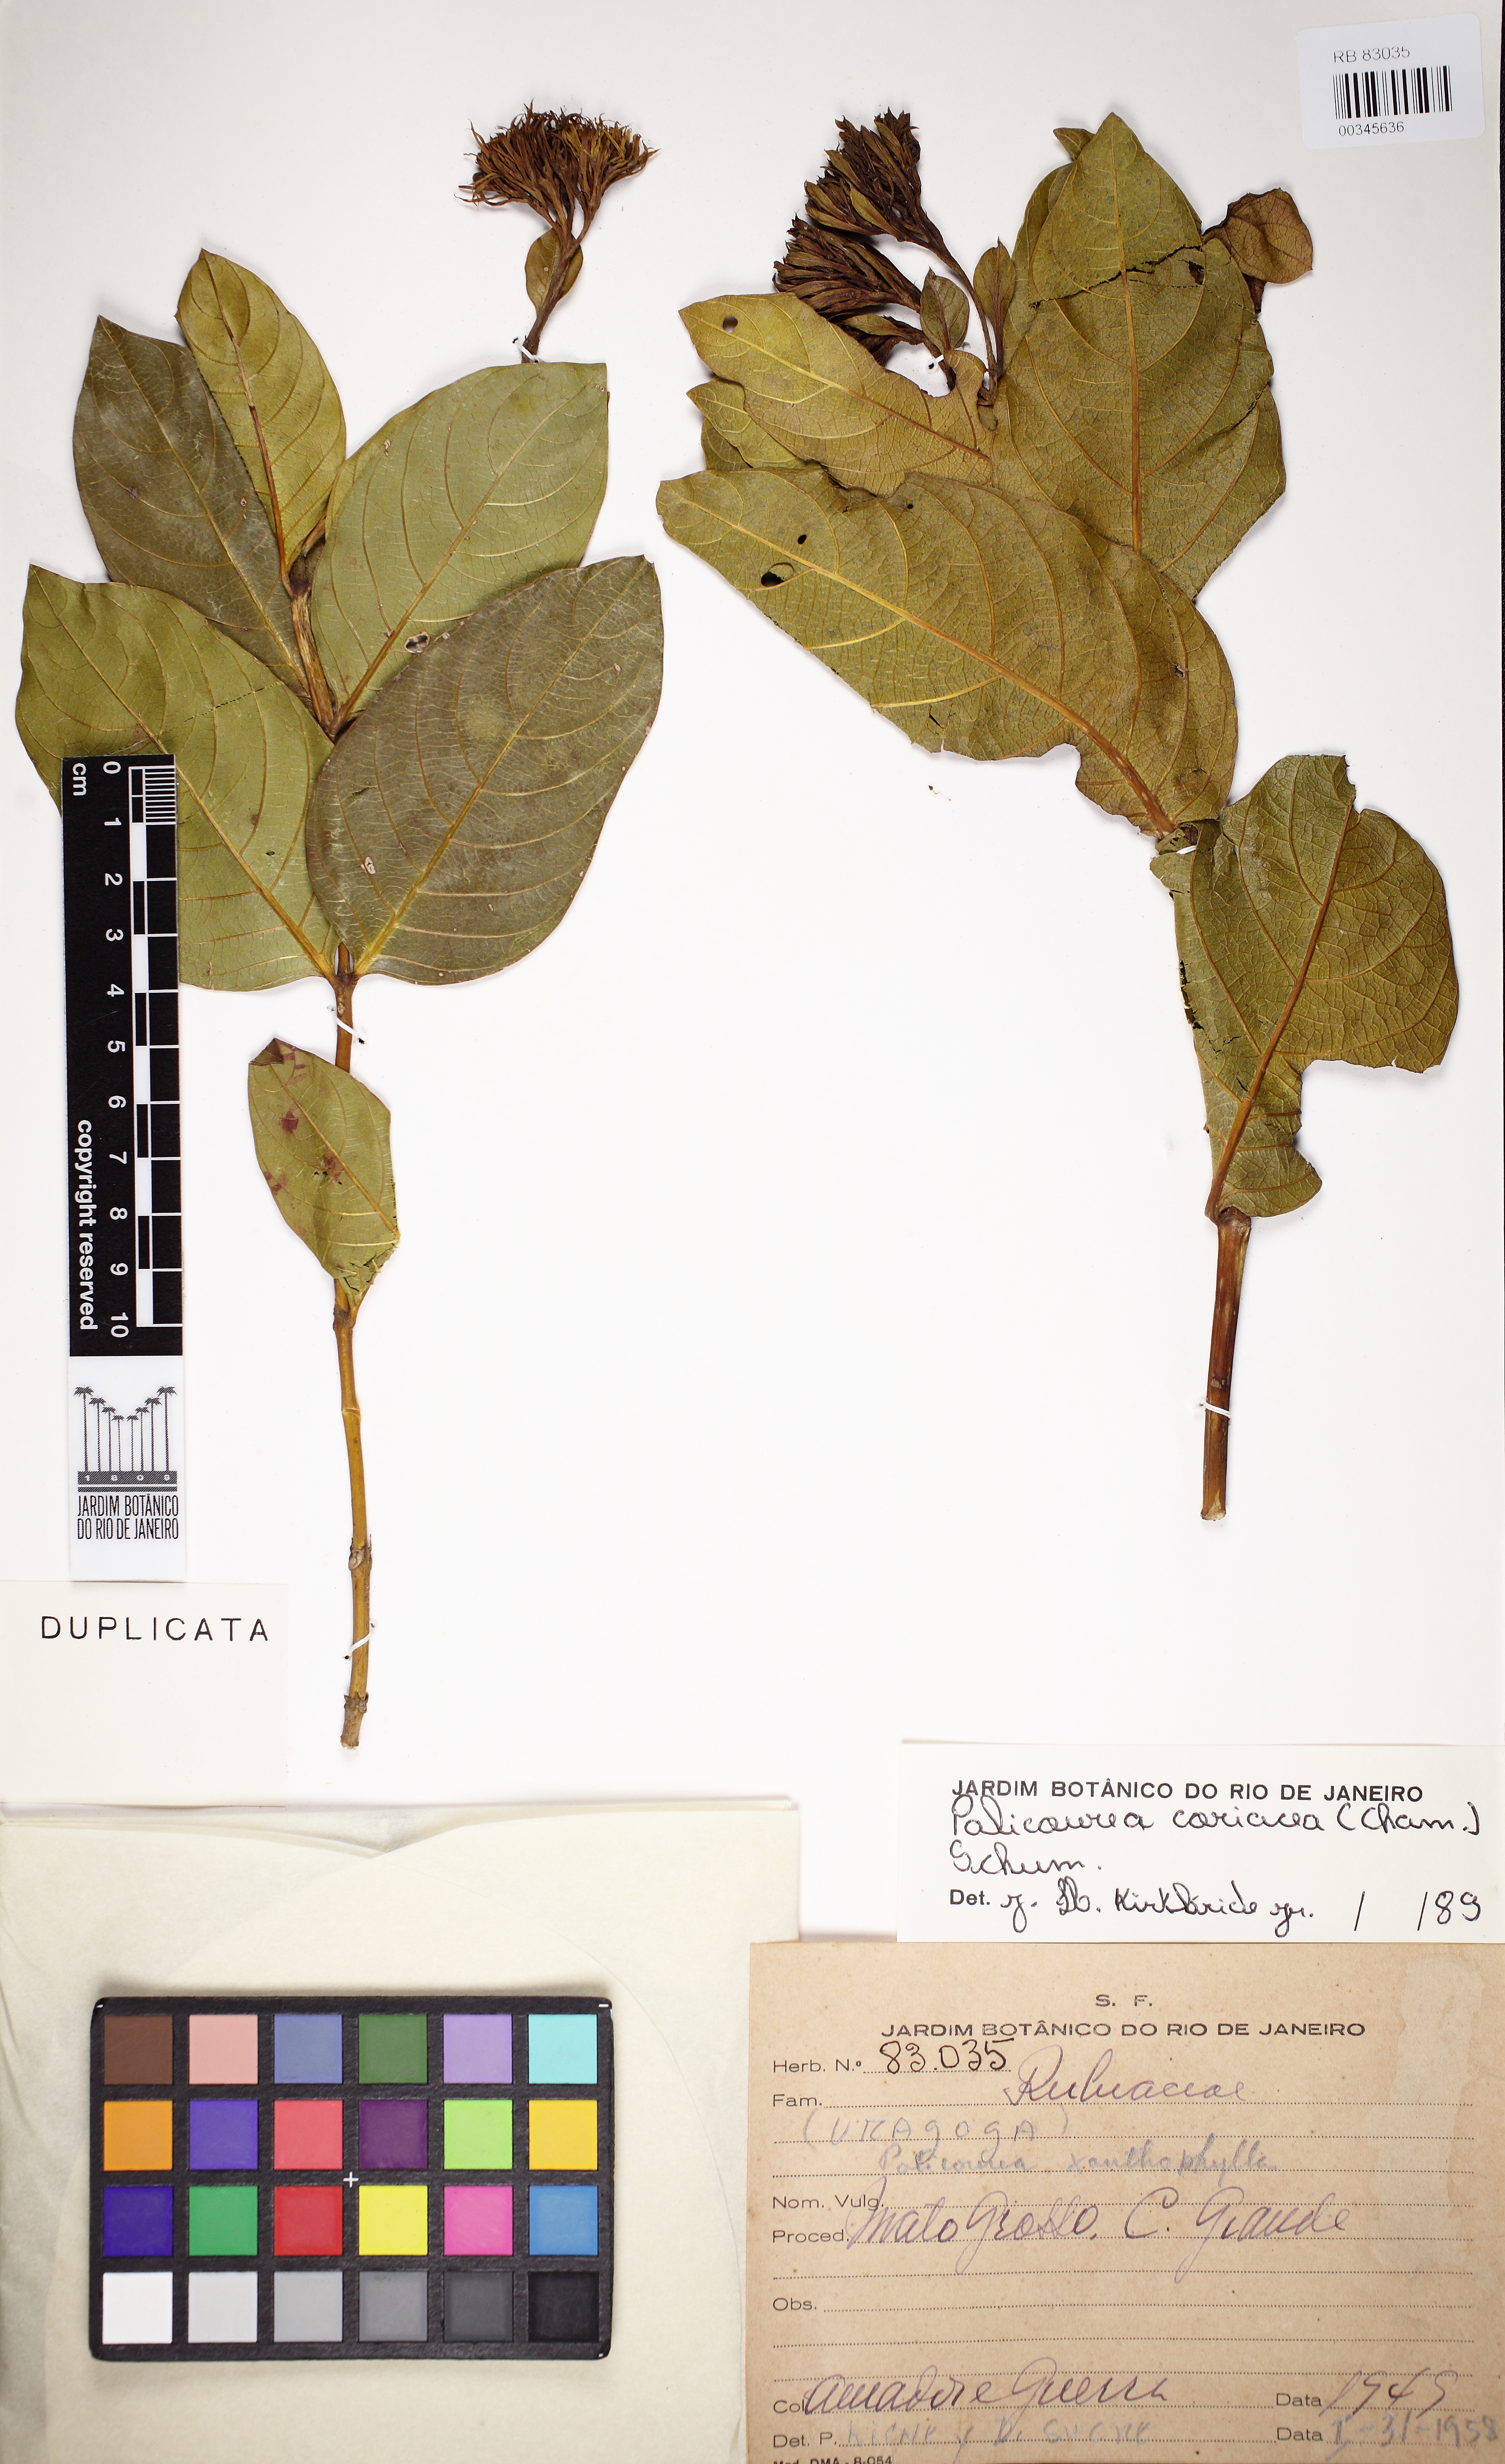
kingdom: Plantae
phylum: Tracheophyta
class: Magnoliopsida
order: Gentianales
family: Rubiaceae
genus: Palicourea
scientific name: Palicourea coriacea
